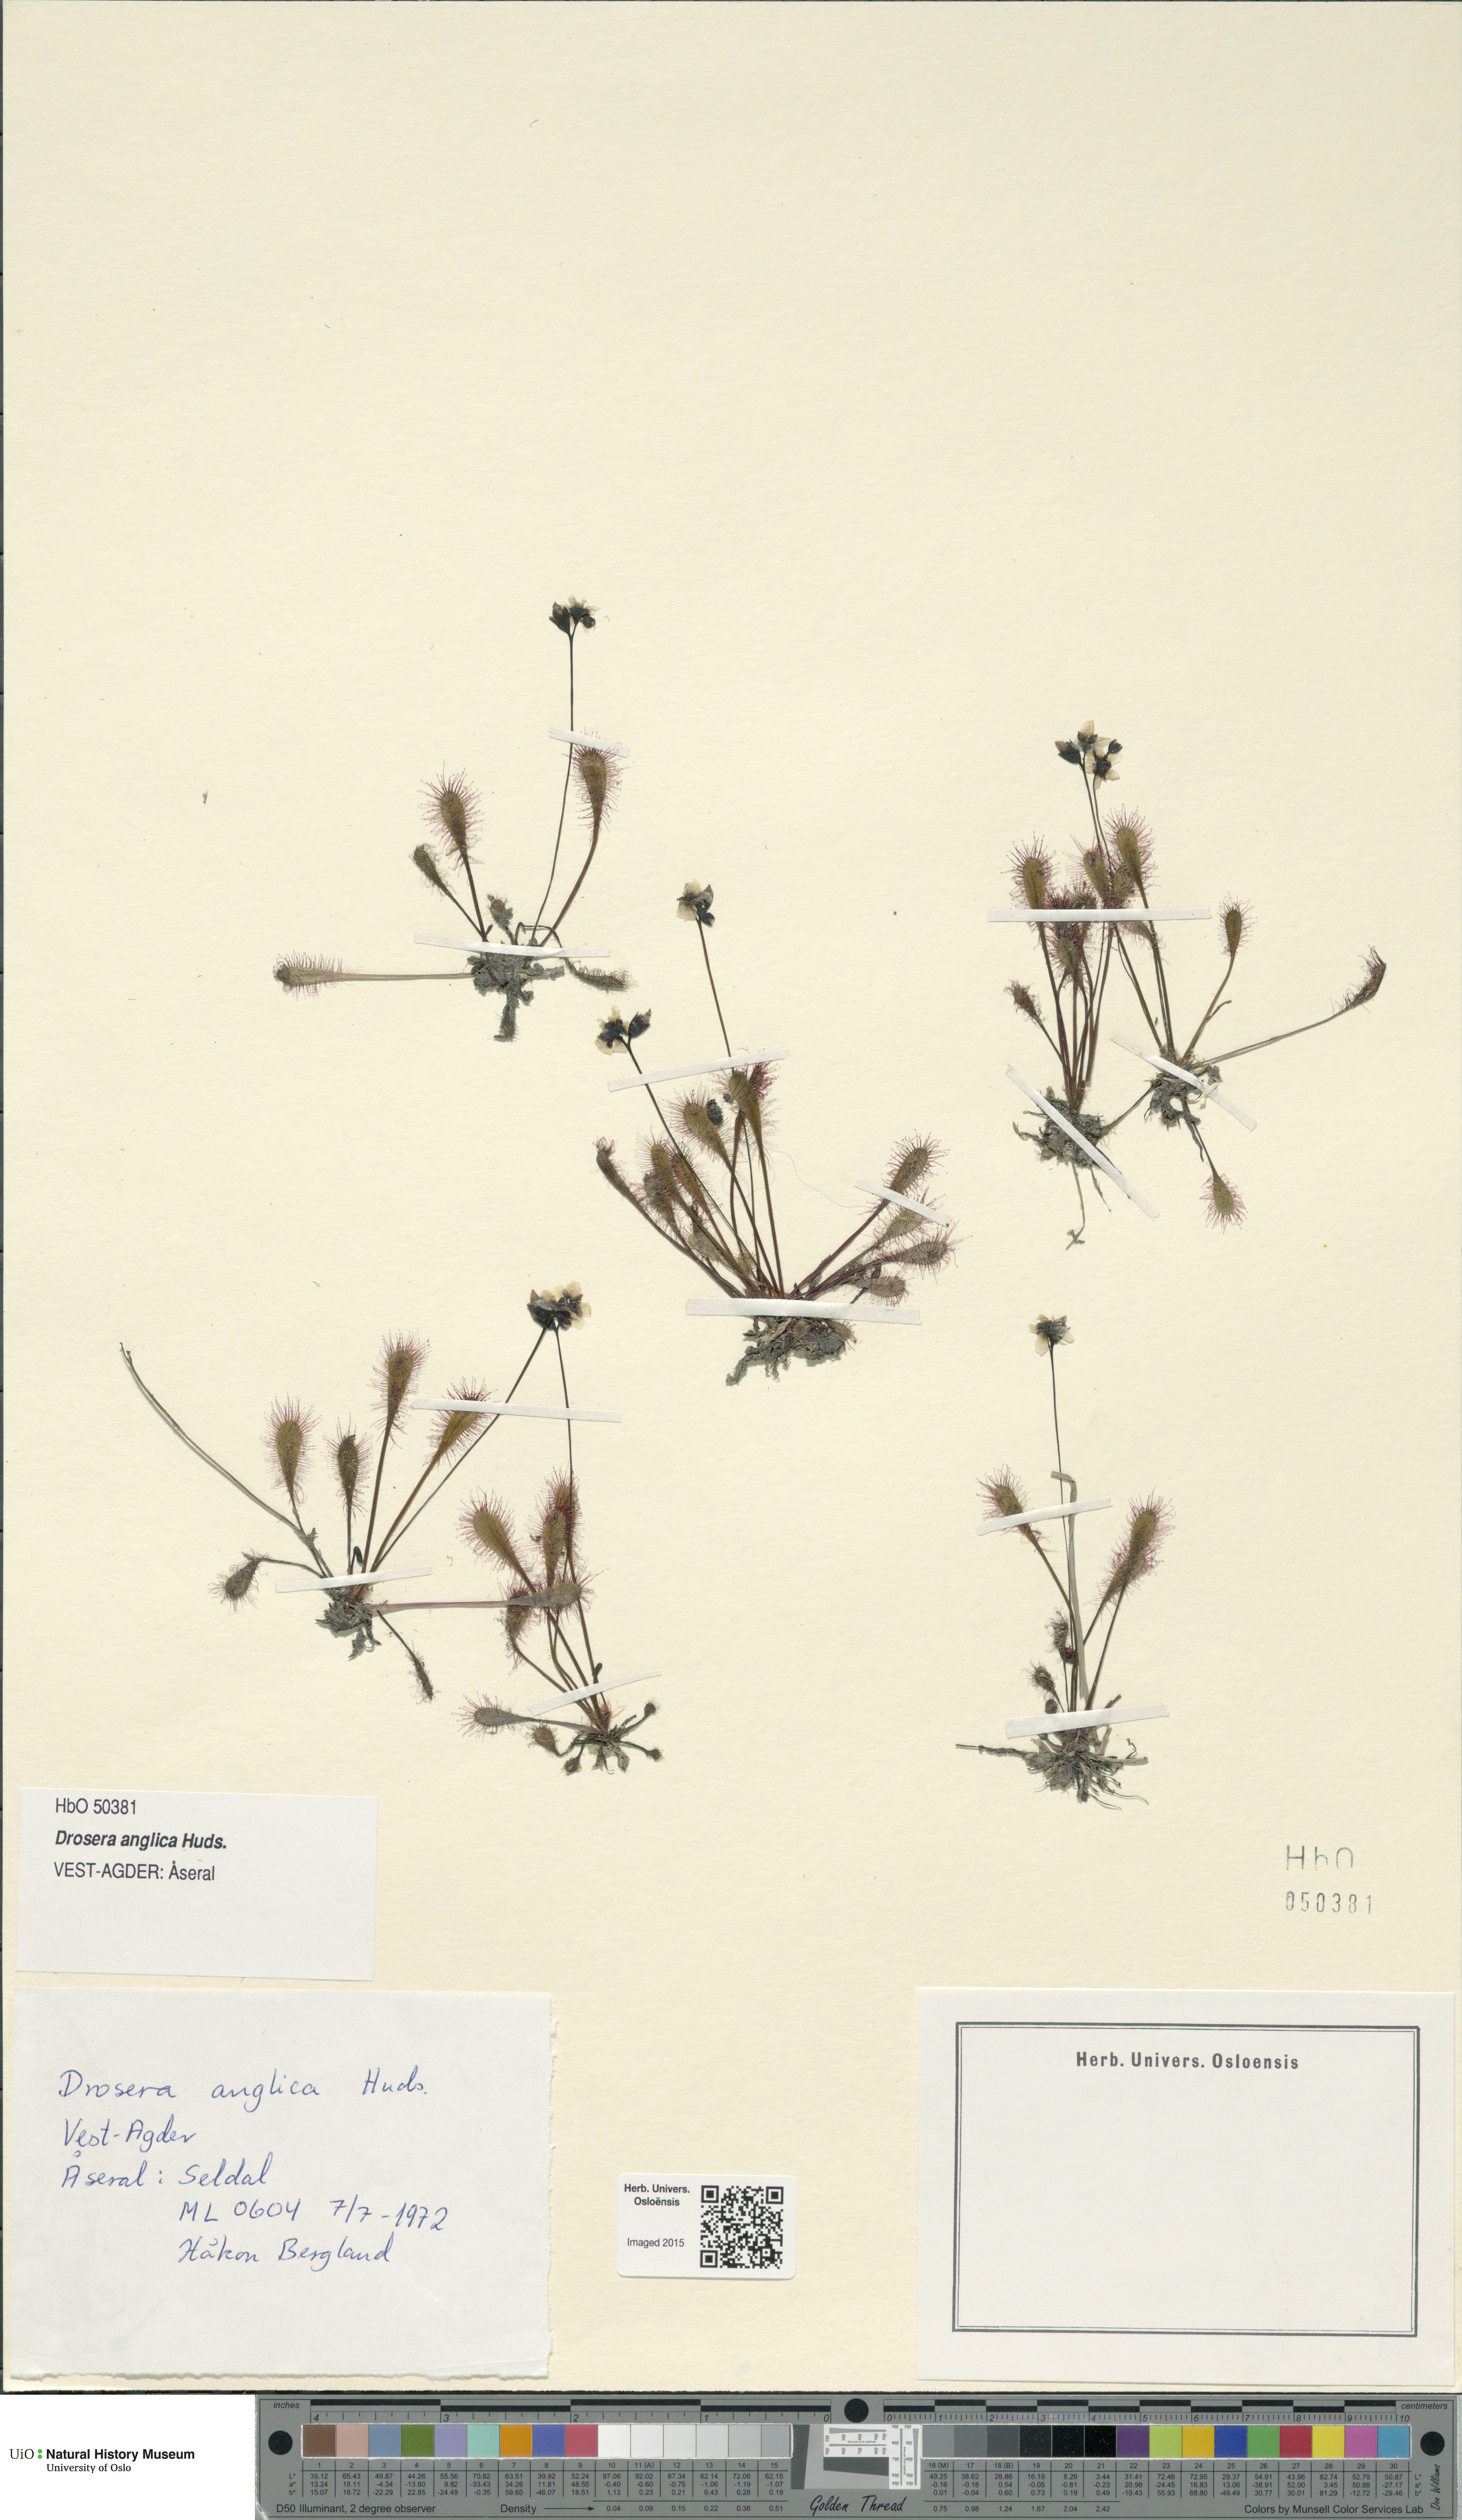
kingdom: Plantae
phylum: Tracheophyta
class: Magnoliopsida
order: Caryophyllales
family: Droseraceae
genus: Drosera
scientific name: Drosera anglica
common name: Great sundew
